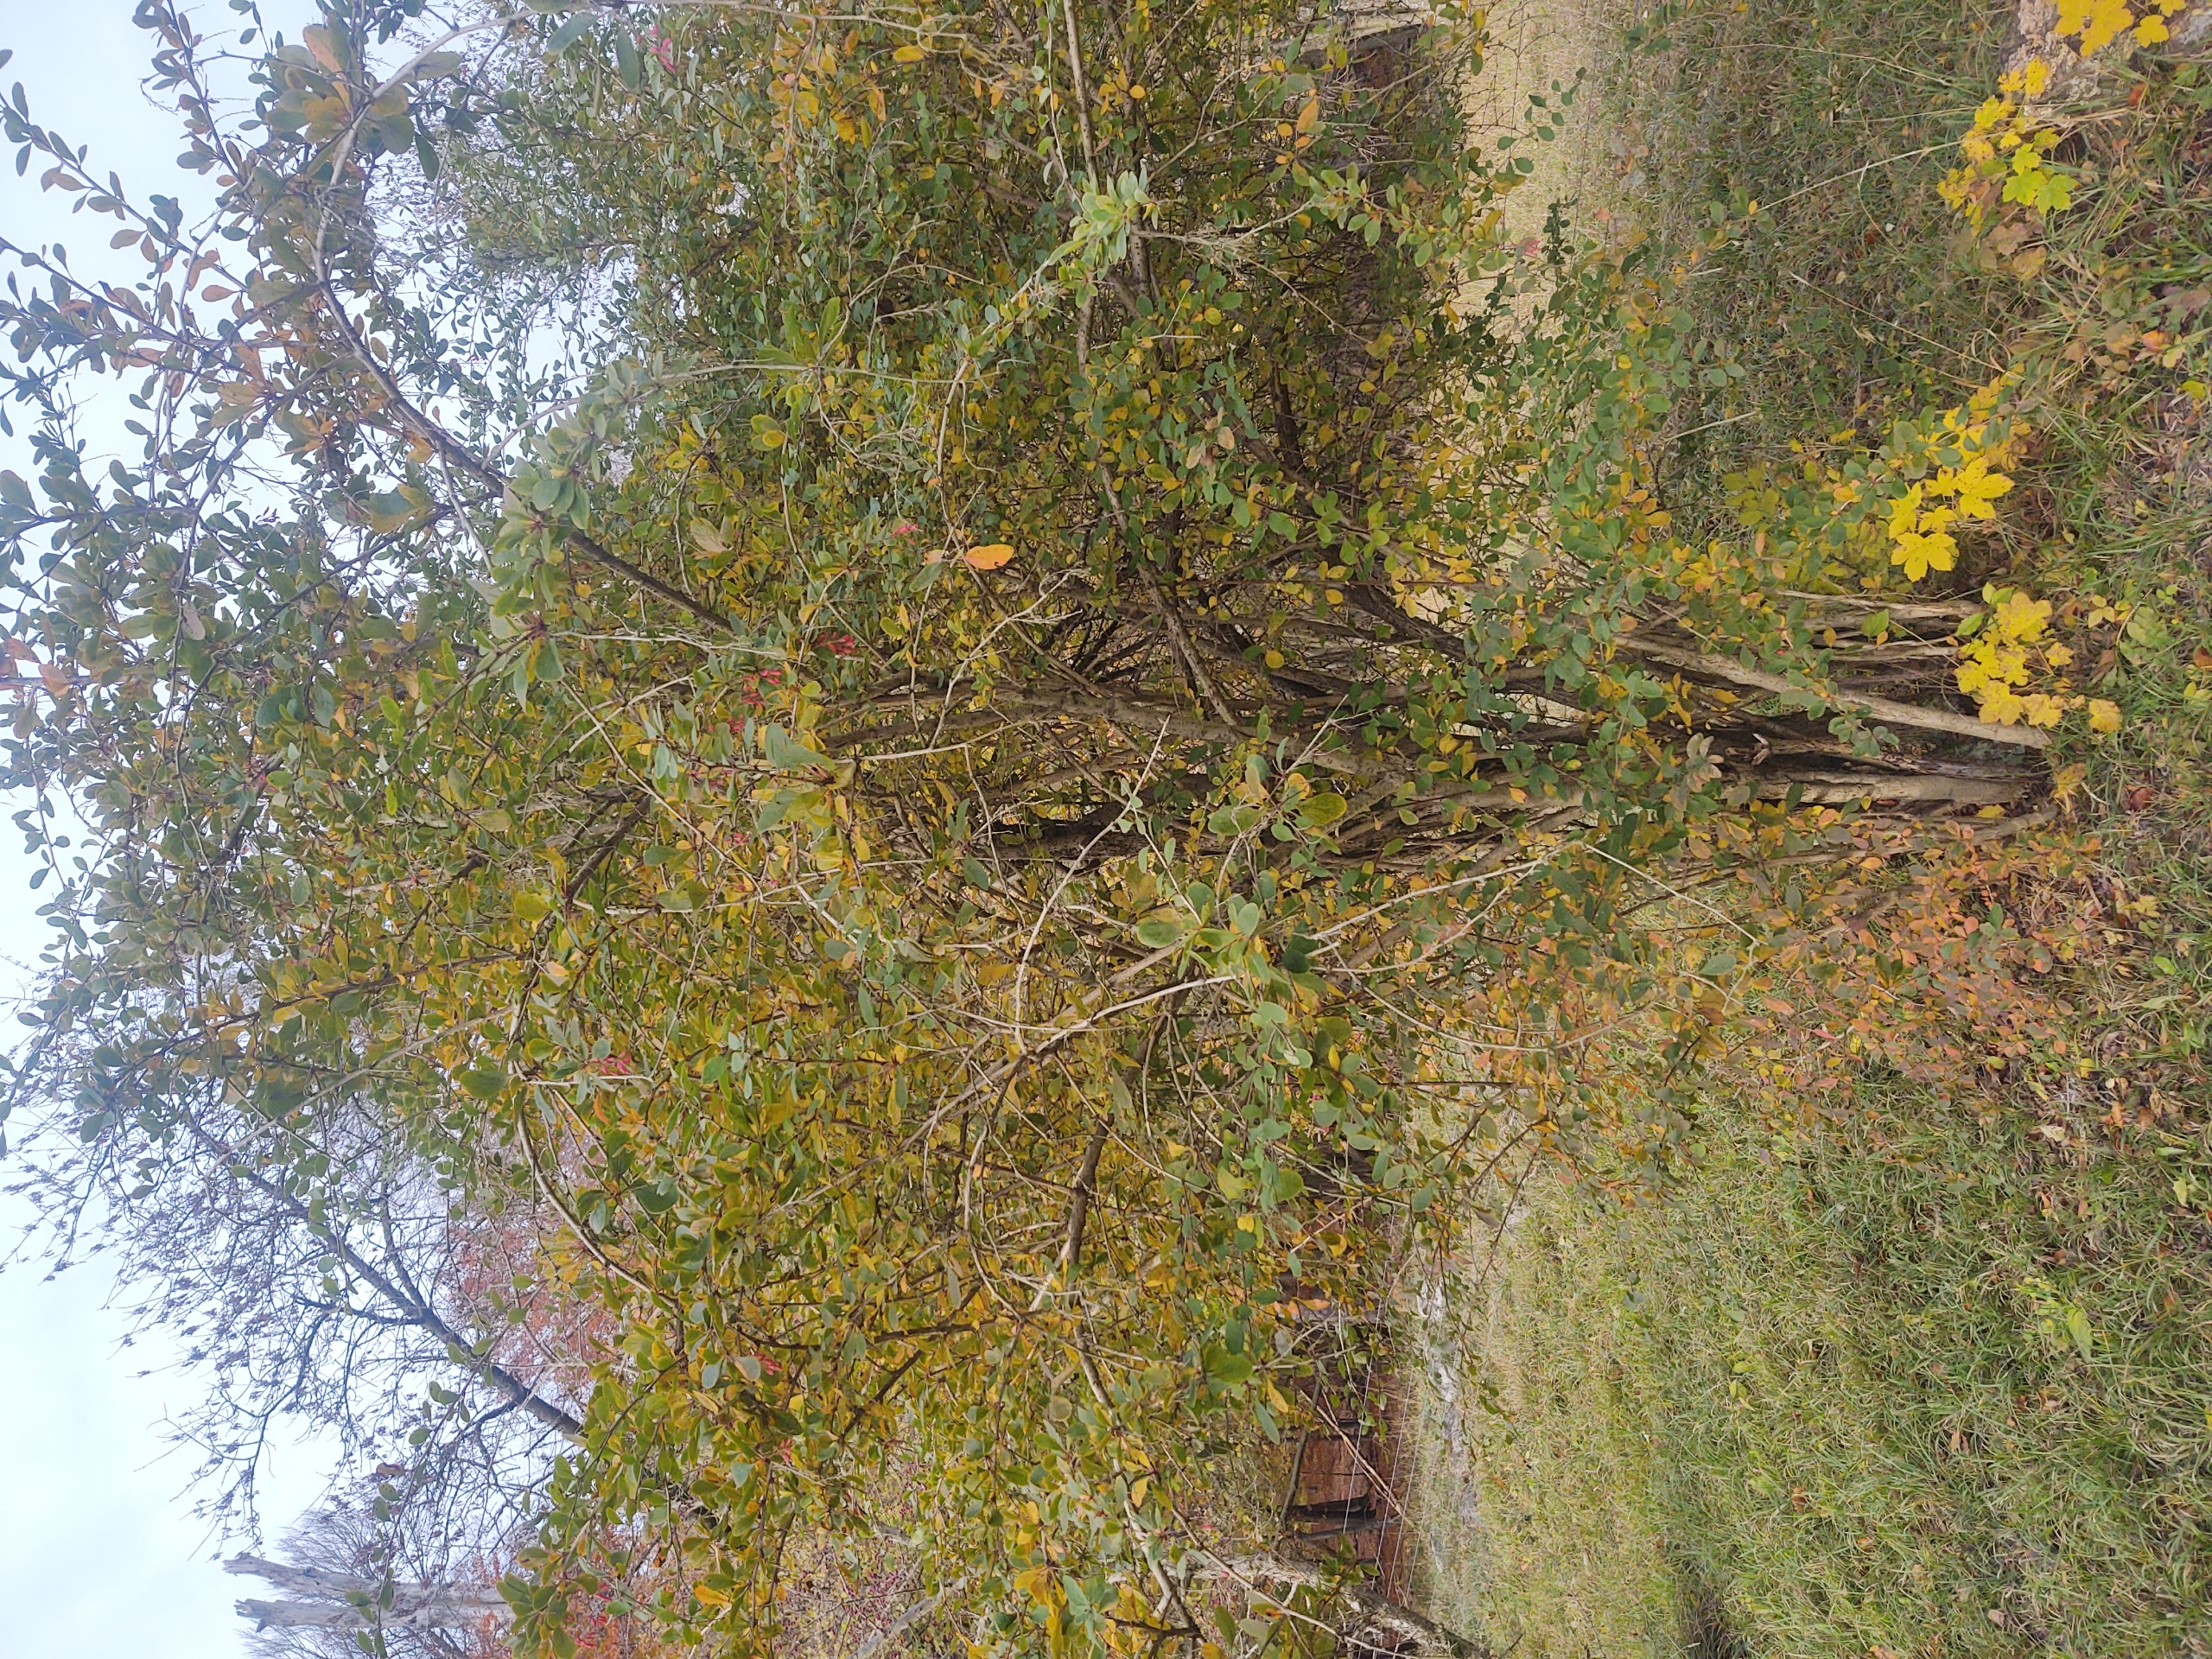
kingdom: Plantae
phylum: Tracheophyta
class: Magnoliopsida
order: Ranunculales
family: Berberidaceae
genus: Berberis
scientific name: Berberis vulgaris
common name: Almindelig berberis
